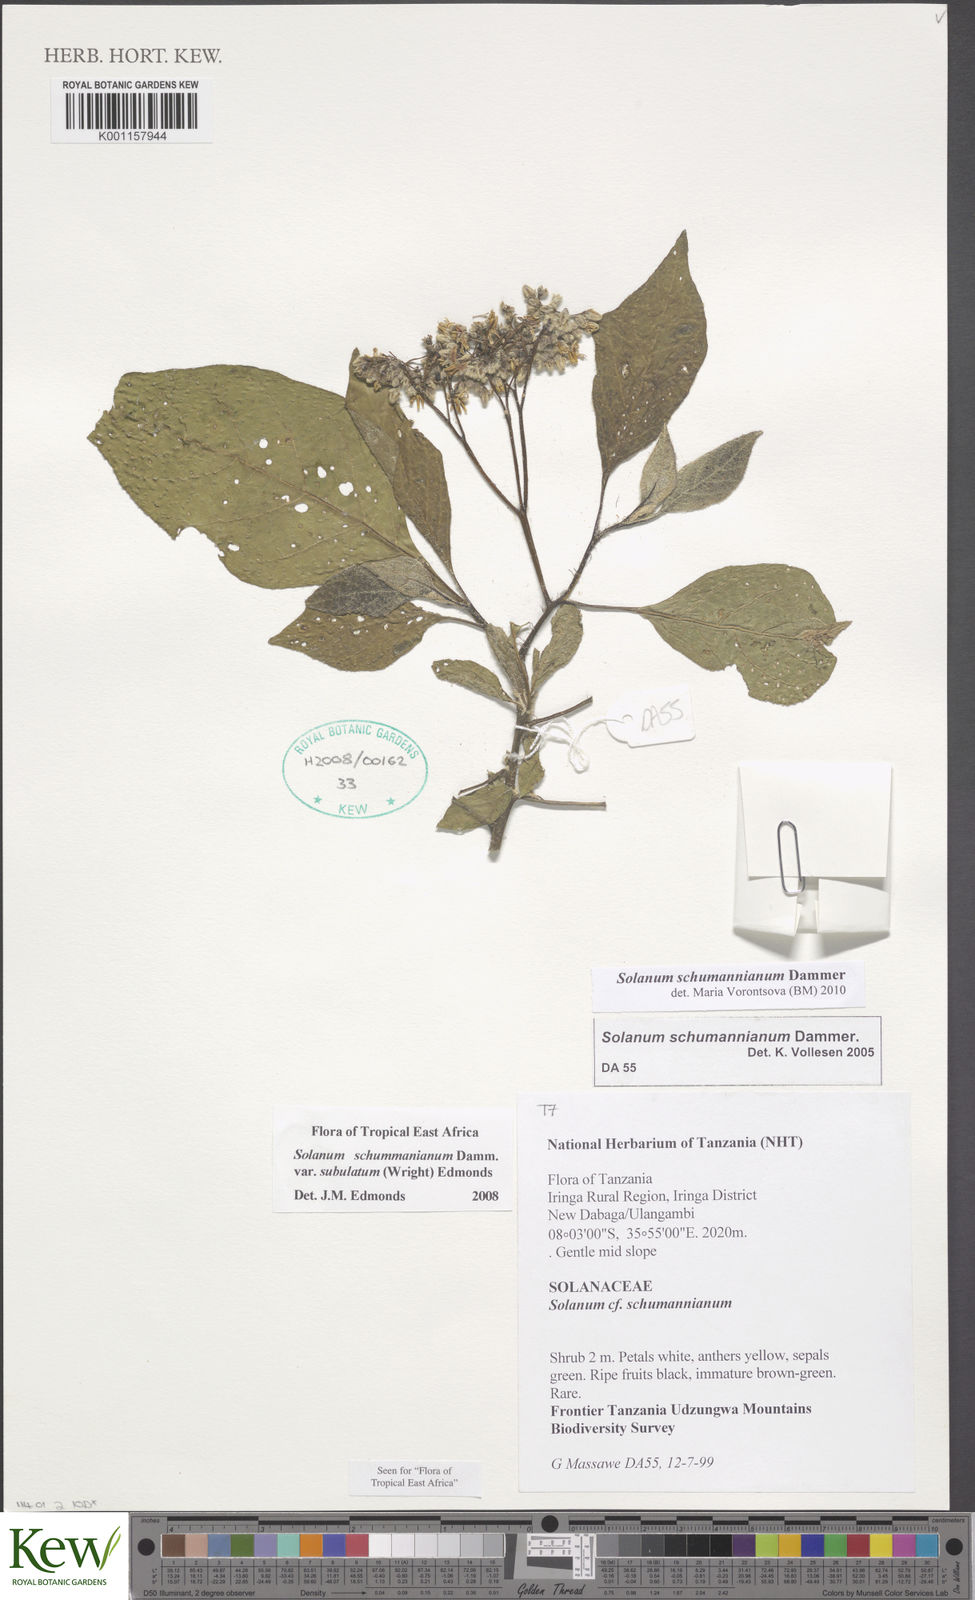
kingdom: Plantae
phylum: Tracheophyta
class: Magnoliopsida
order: Solanales
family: Solanaceae
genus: Solanum
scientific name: Solanum schumannianum
